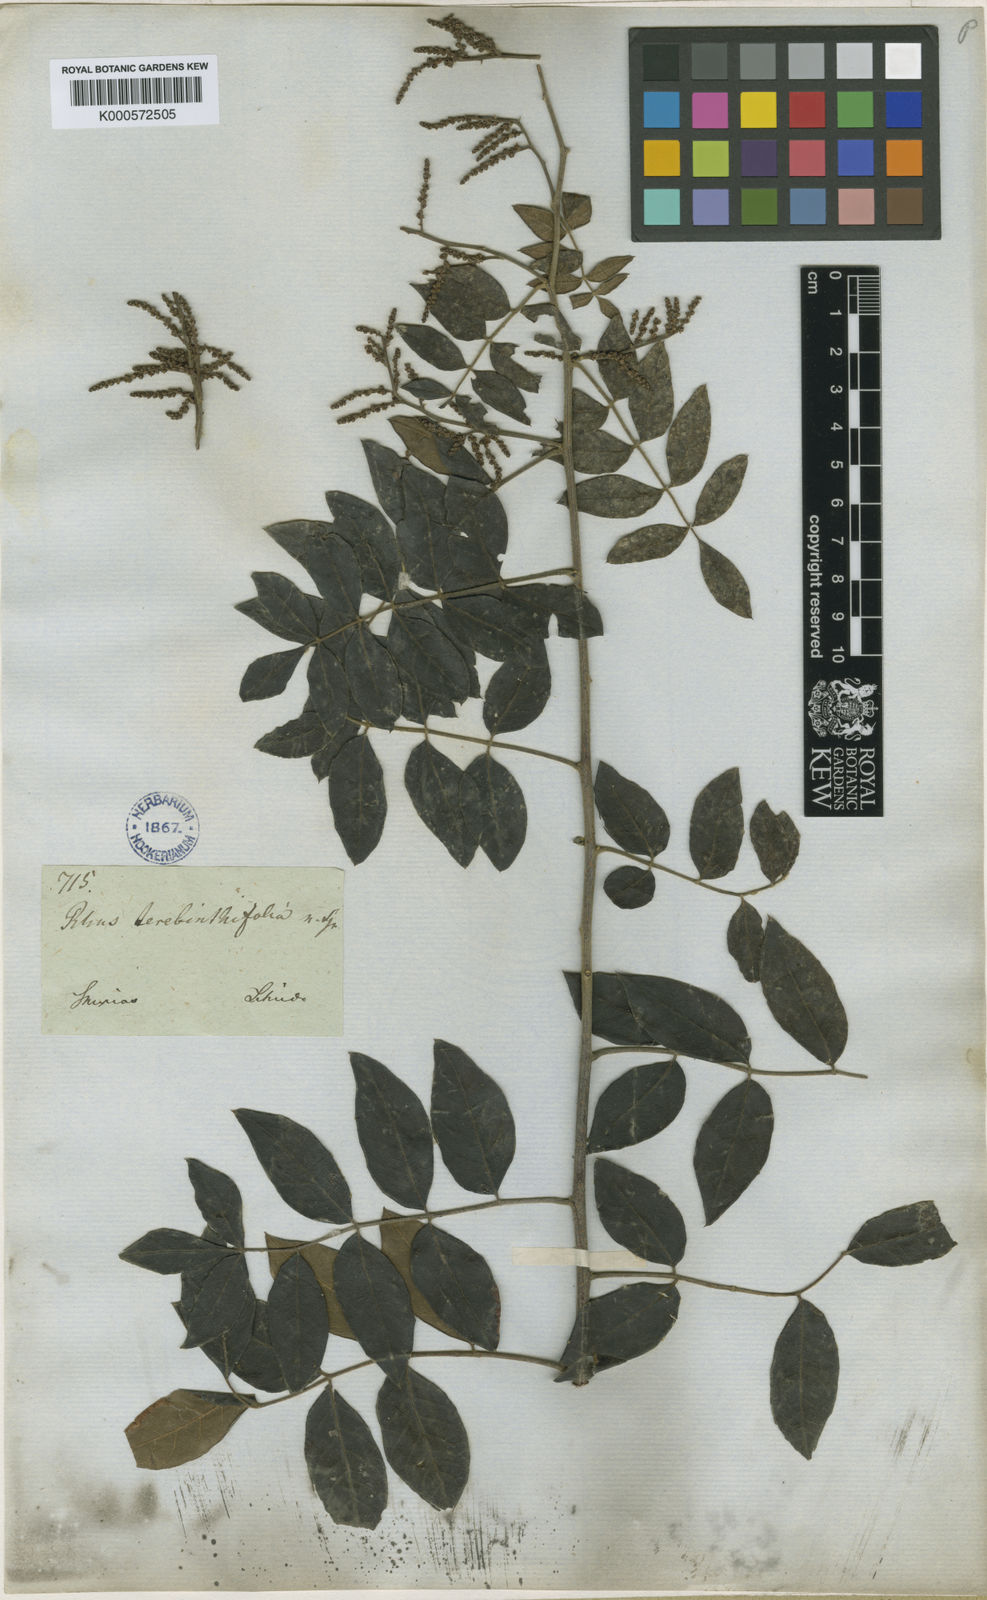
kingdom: Plantae
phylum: Tracheophyta
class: Magnoliopsida
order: Sapindales
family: Anacardiaceae
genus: Rhus
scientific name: Rhus terebinthifolia
